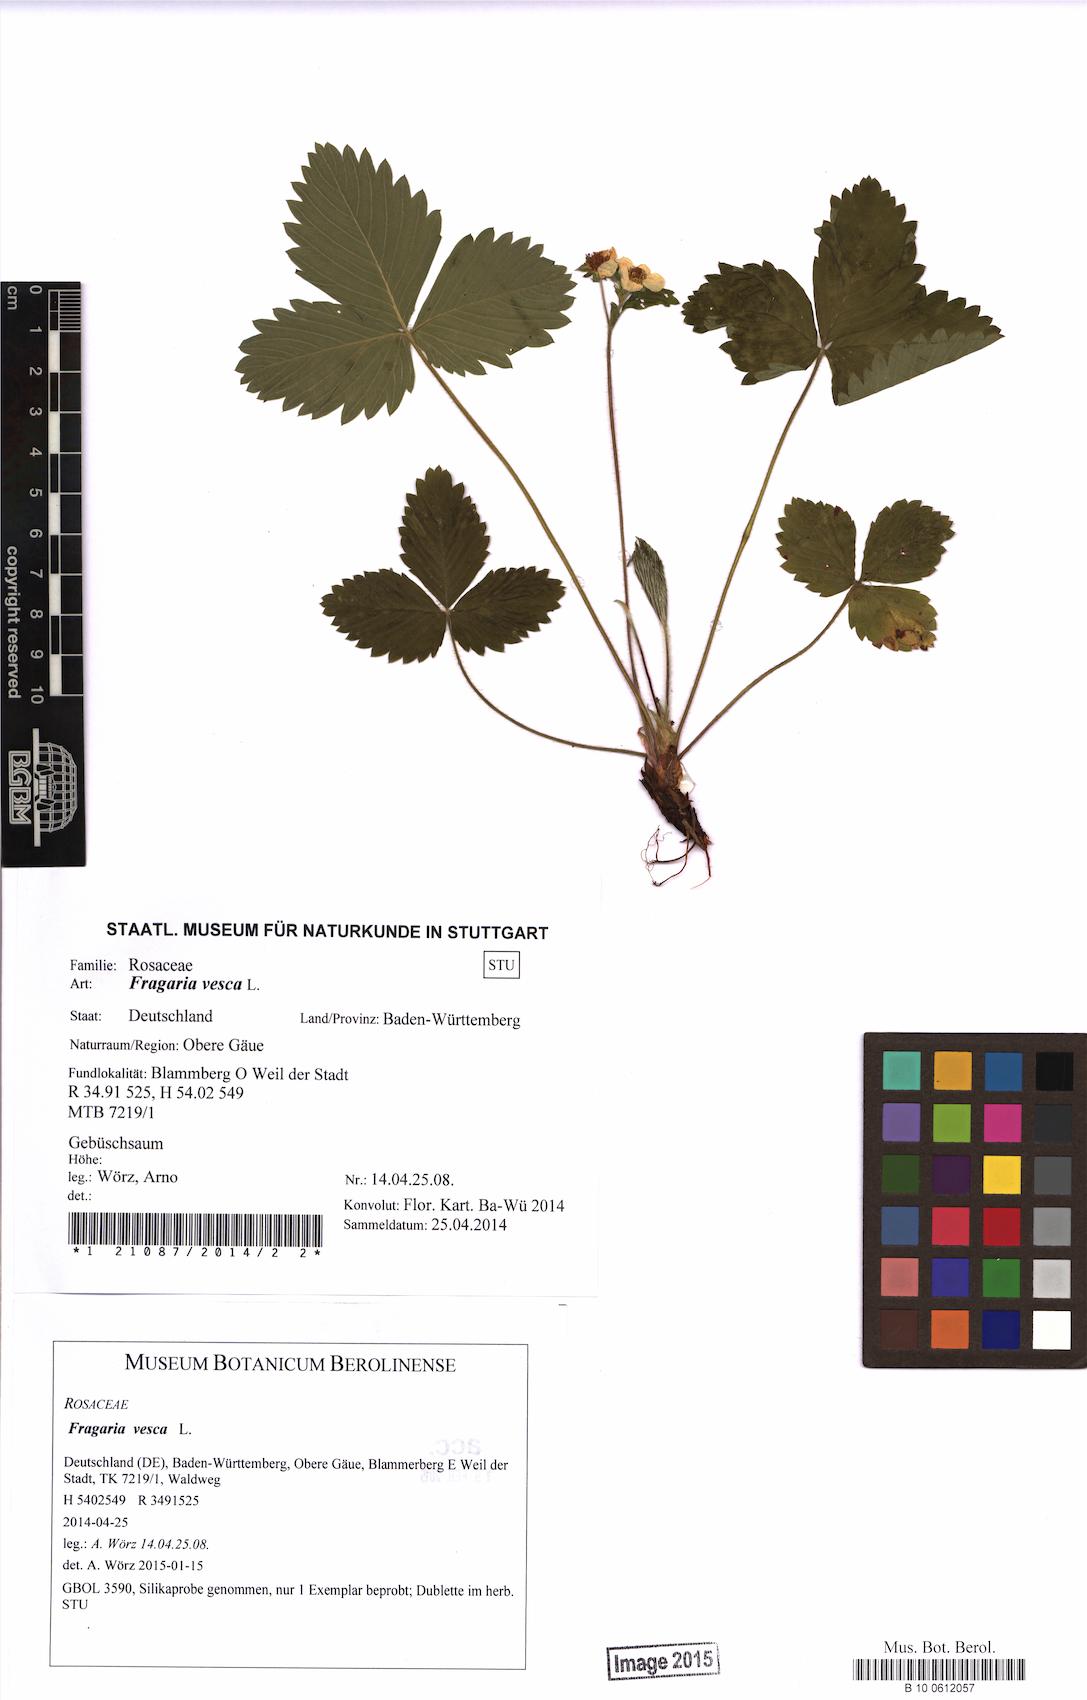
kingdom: Plantae
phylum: Tracheophyta
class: Magnoliopsida
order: Rosales
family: Rosaceae
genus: Fragaria
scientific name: Fragaria vesca
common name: Wild strawberry
